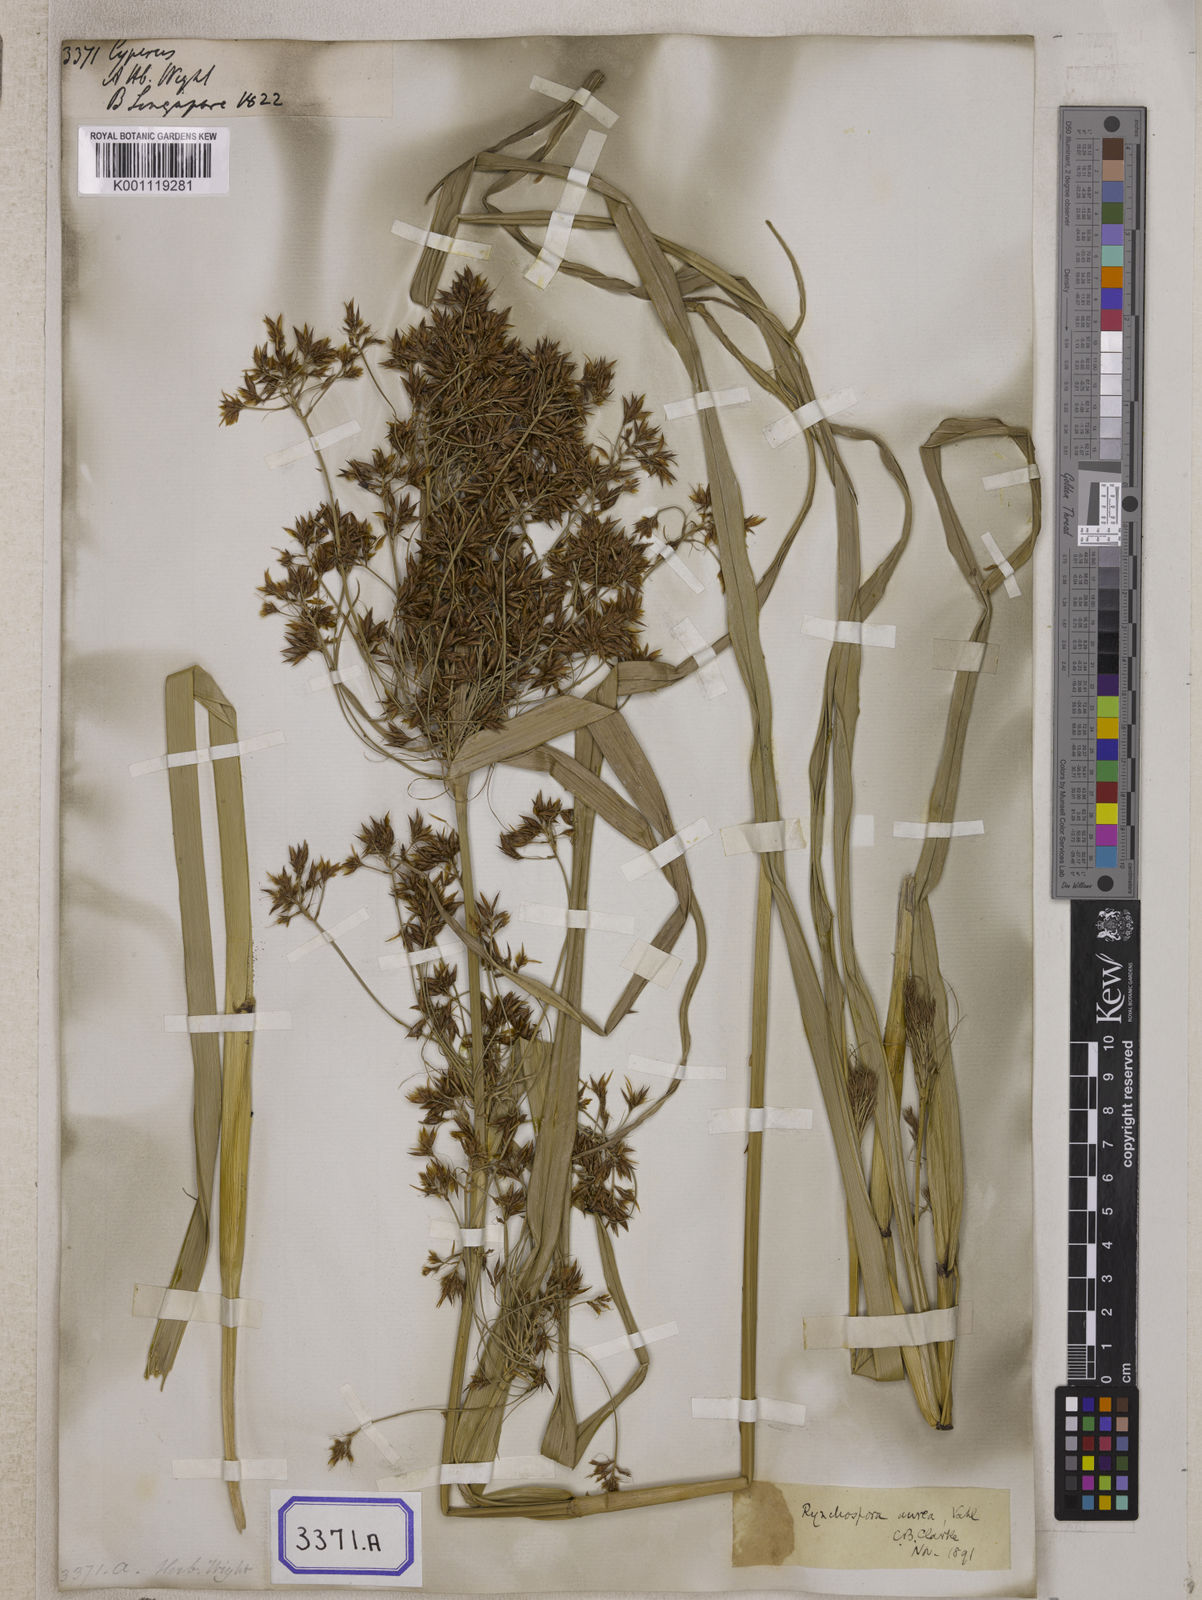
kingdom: Plantae
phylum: Tracheophyta
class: Liliopsida
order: Poales
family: Cyperaceae
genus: Cyperus
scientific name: Cyperus
